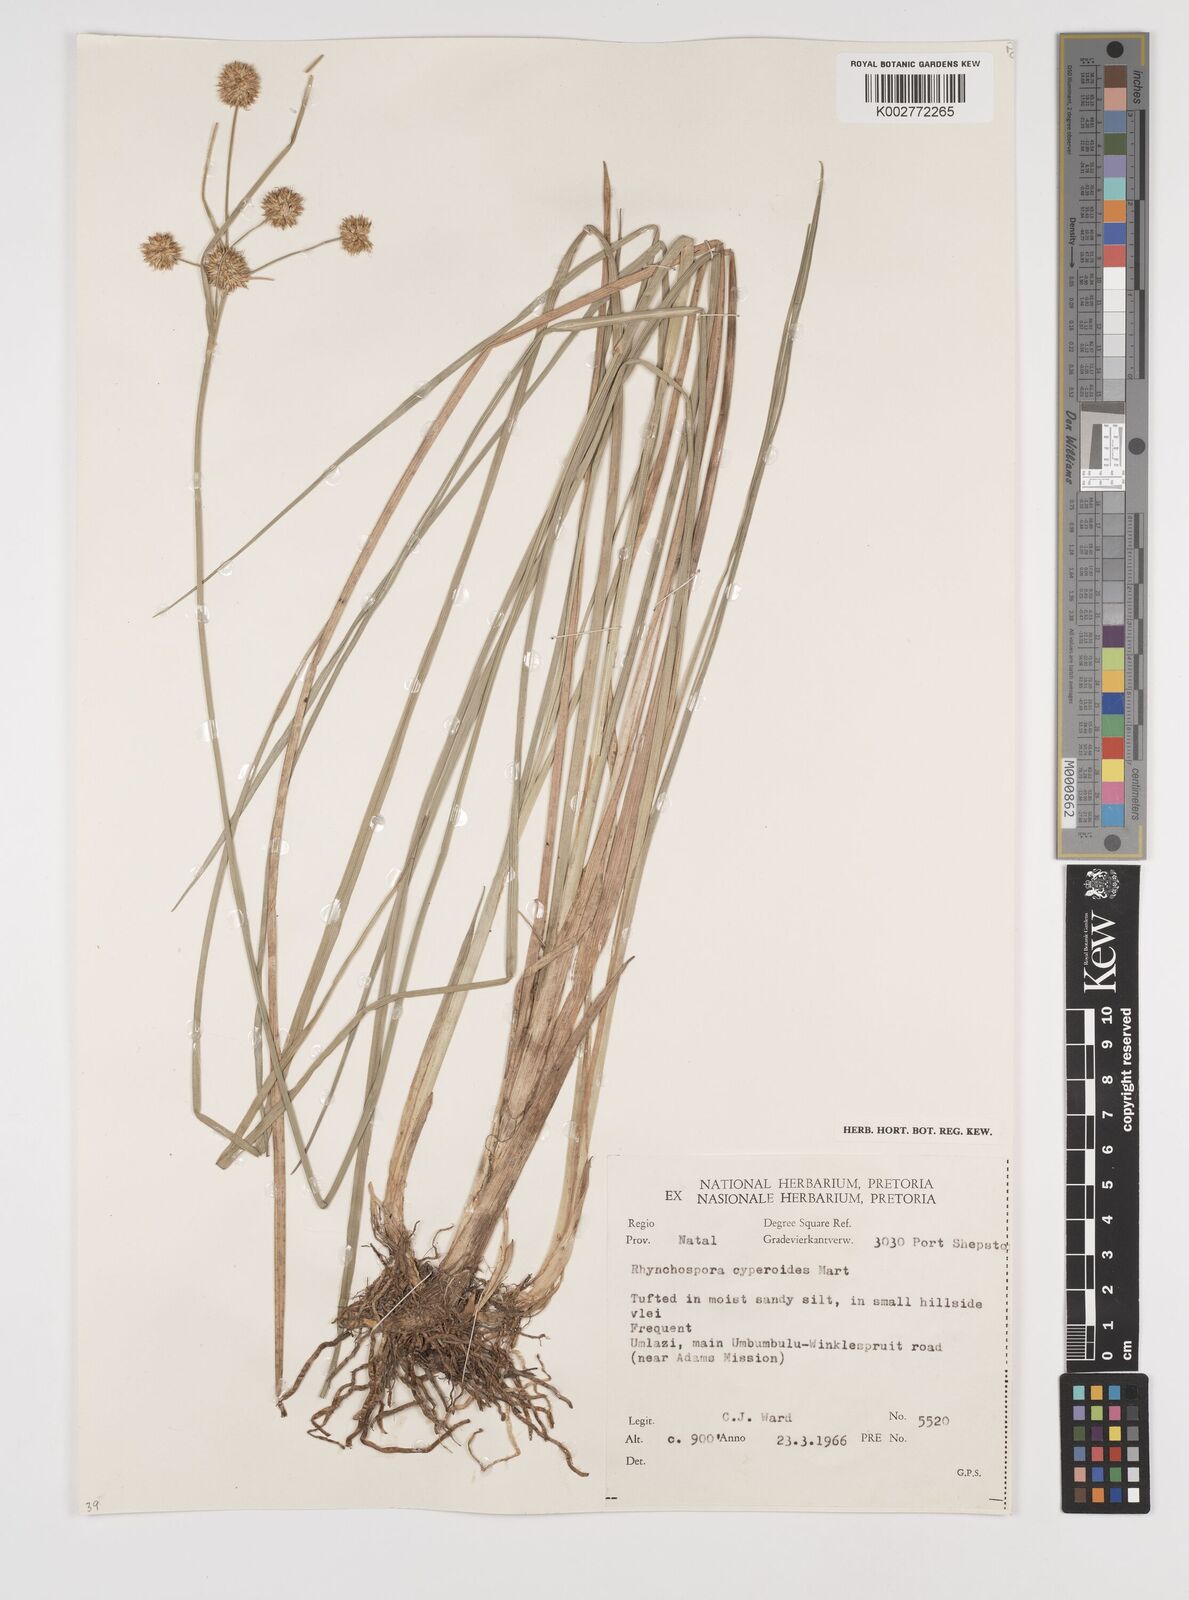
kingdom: Plantae
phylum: Tracheophyta
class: Liliopsida
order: Poales
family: Cyperaceae
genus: Rhynchospora
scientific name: Rhynchospora holoschoenoides
